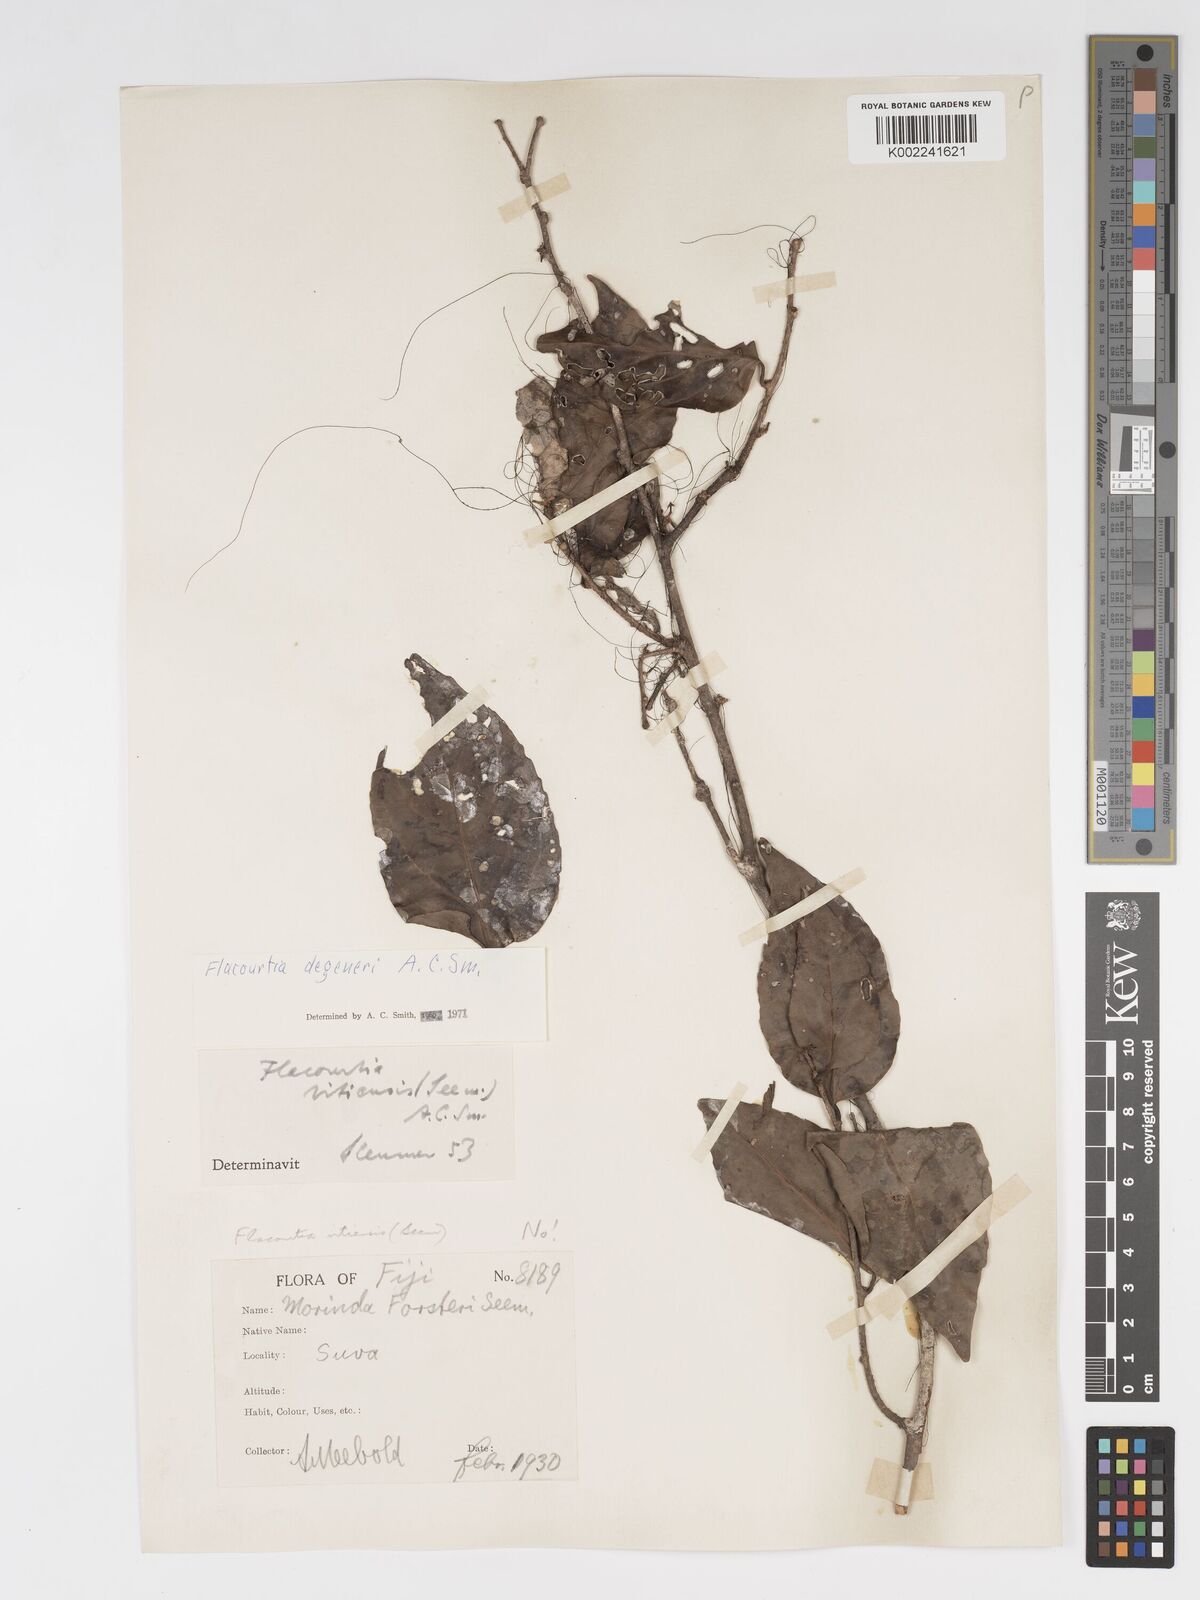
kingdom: Plantae
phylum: Tracheophyta
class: Magnoliopsida
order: Malpighiales
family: Salicaceae
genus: Flacourtia
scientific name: Flacourtia degeneri
